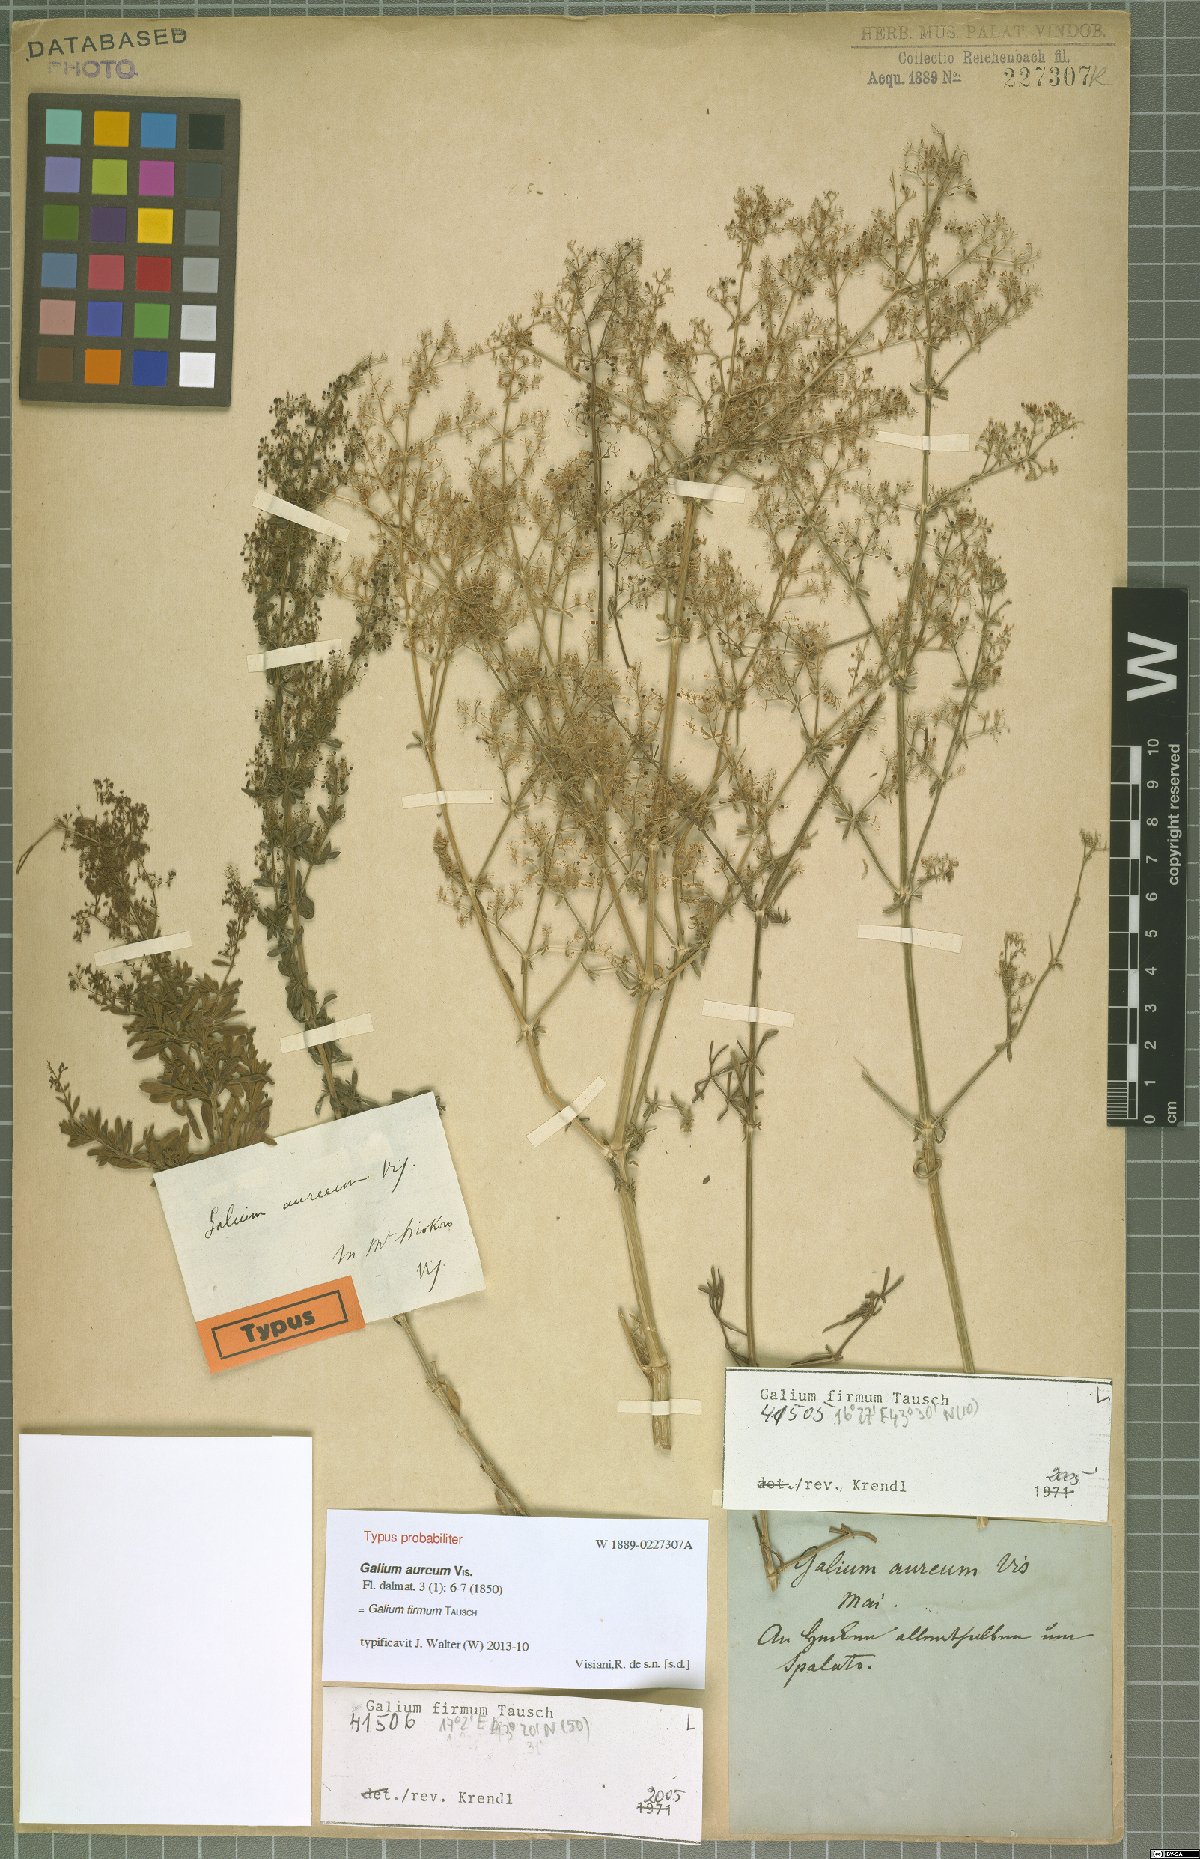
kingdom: Plantae
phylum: Tracheophyta
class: Magnoliopsida
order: Gentianales
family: Rubiaceae
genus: Galium
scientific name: Galium firmum
